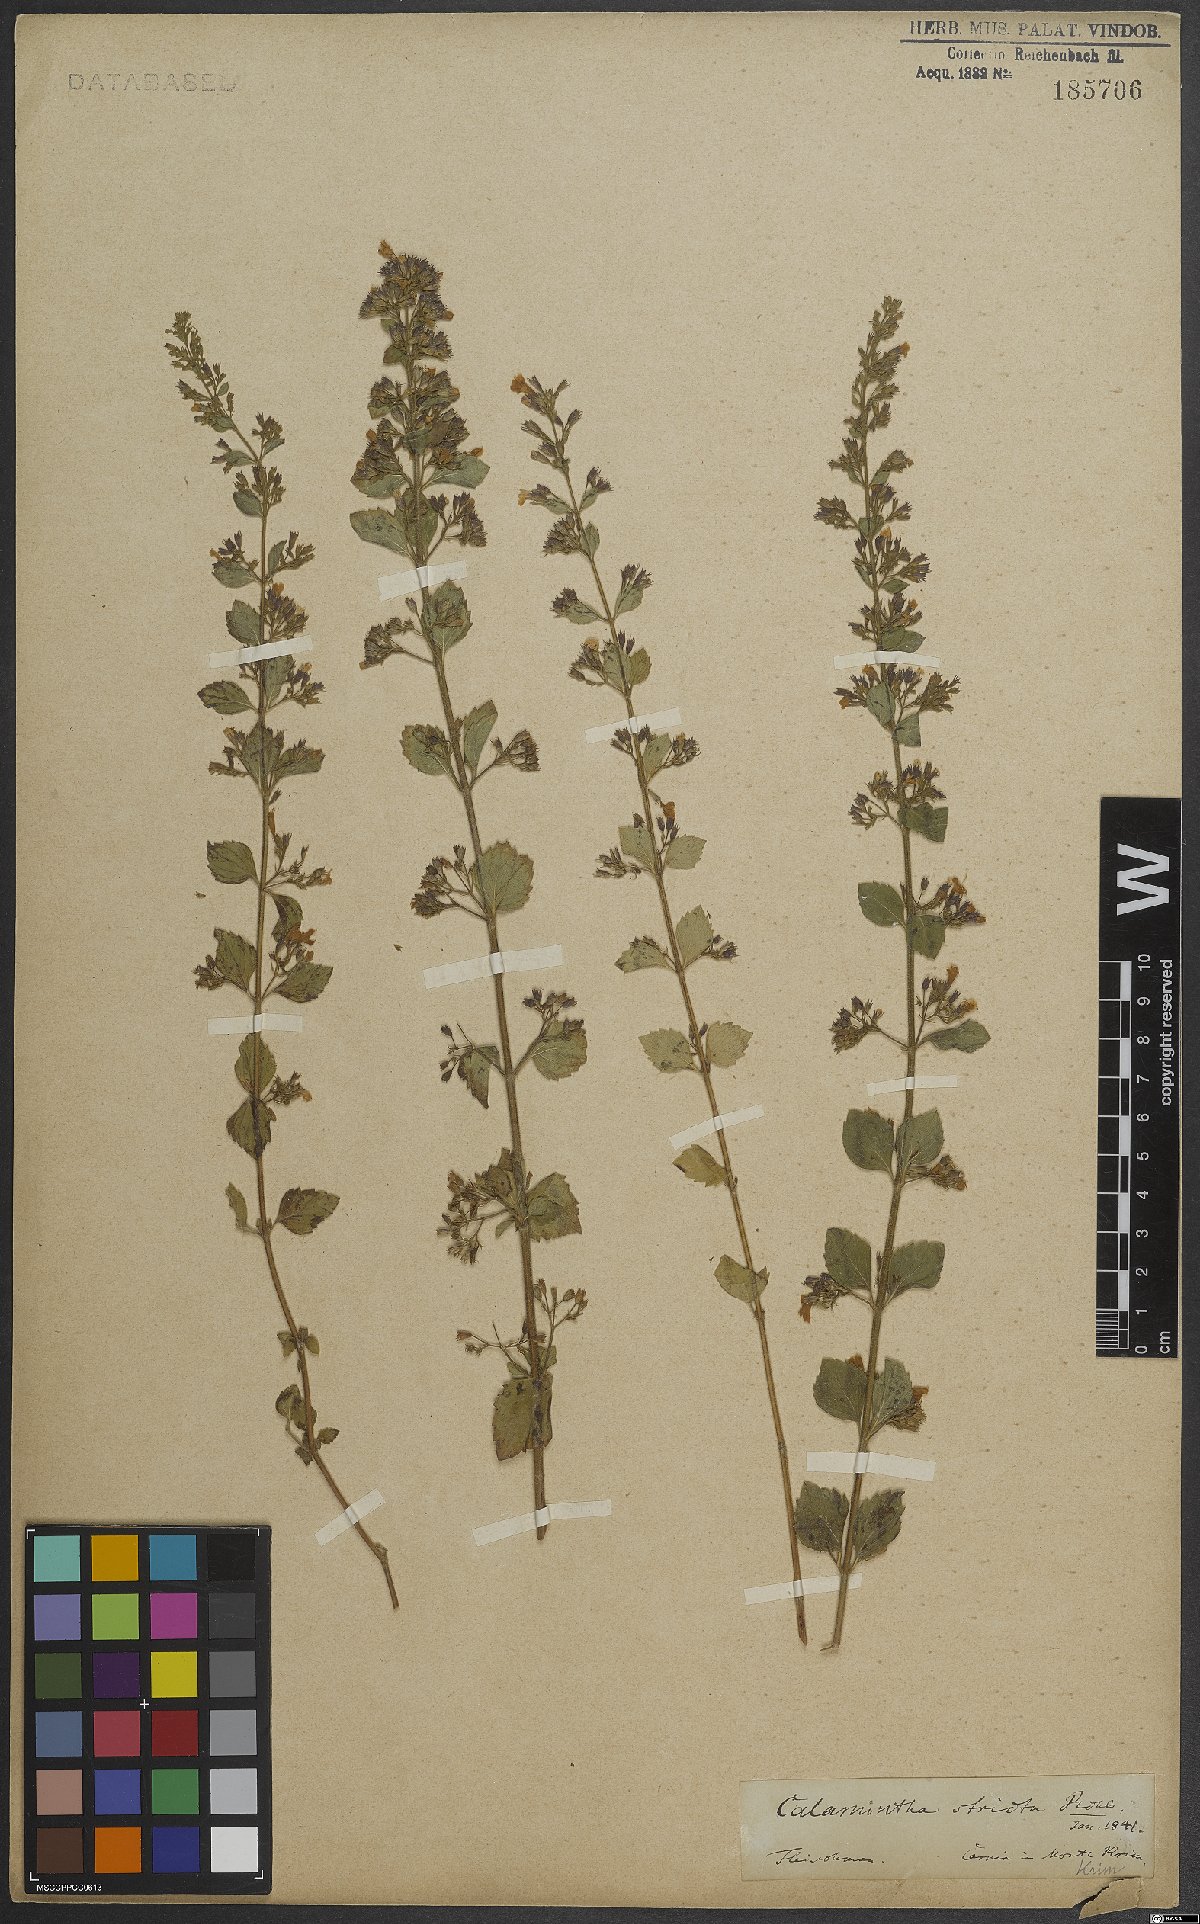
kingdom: Plantae
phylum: Tracheophyta
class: Magnoliopsida
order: Lamiales
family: Lamiaceae
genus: Calamintha
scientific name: Calamintha
